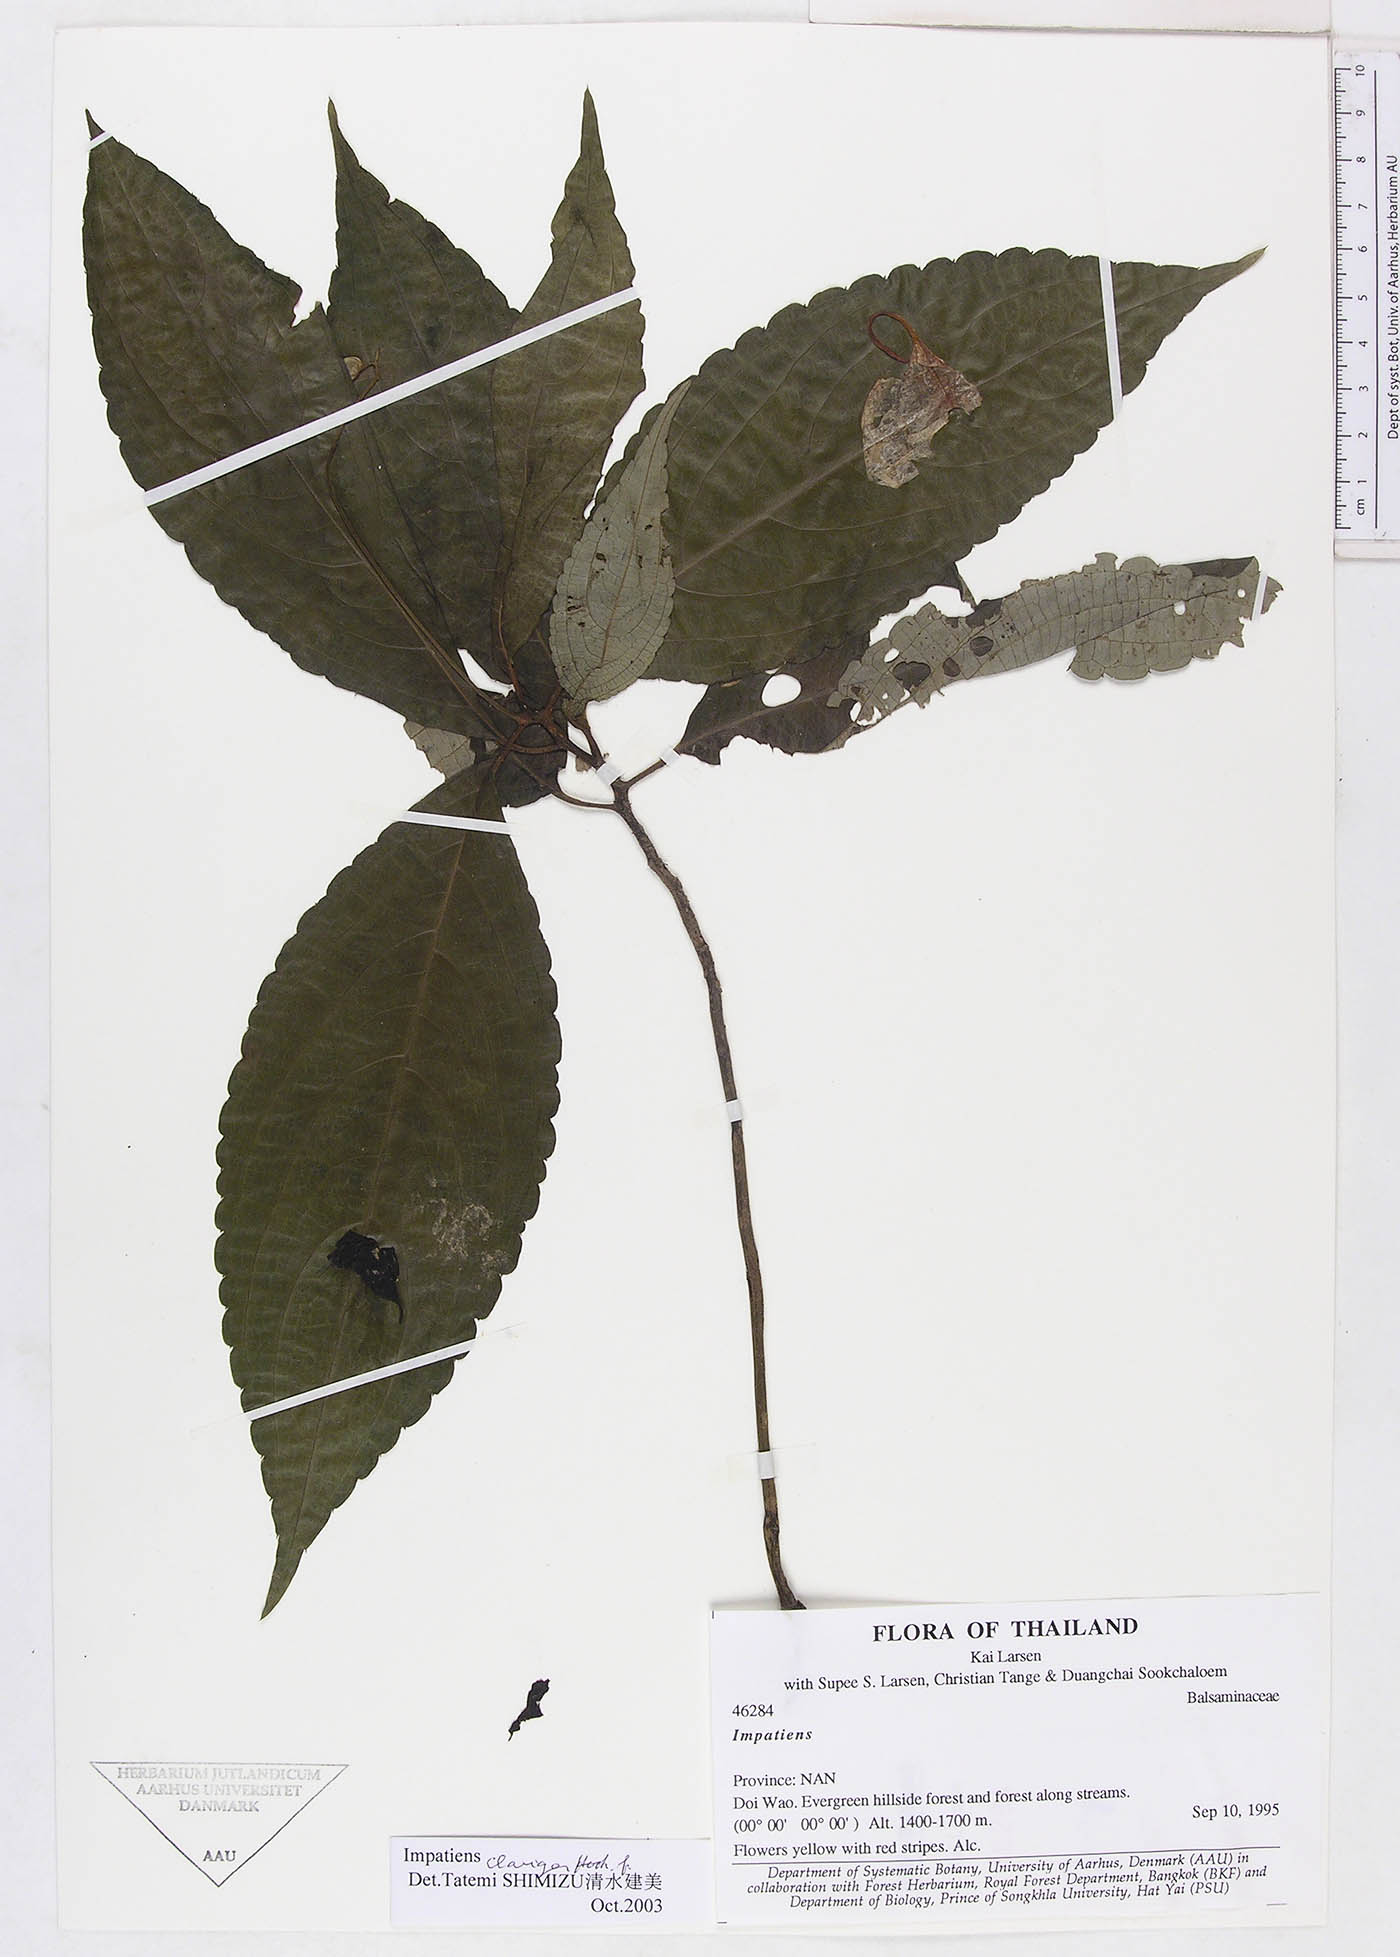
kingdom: Plantae
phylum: Tracheophyta
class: Magnoliopsida
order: Ericales
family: Balsaminaceae
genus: Impatiens
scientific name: Impatiens clavigera
